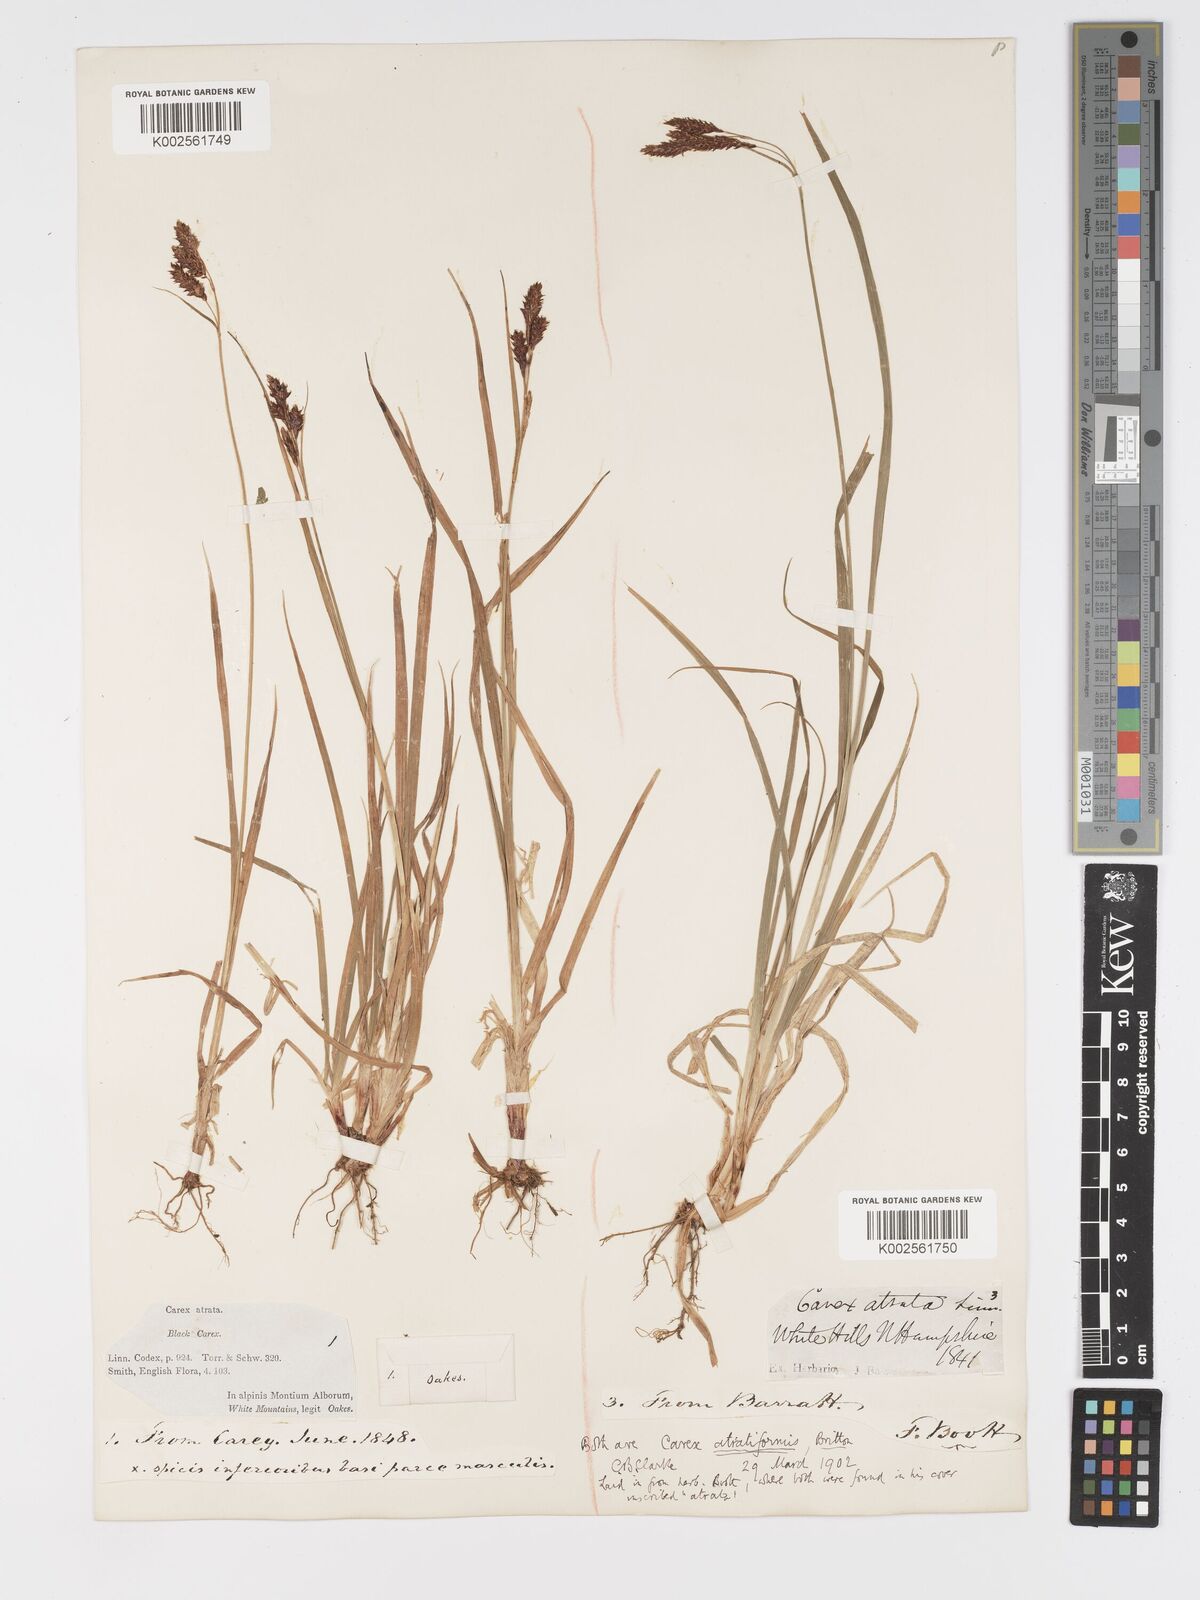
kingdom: Plantae
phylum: Tracheophyta
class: Liliopsida
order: Poales
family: Cyperaceae
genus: Carex
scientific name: Carex atratiformis
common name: Black sedge
